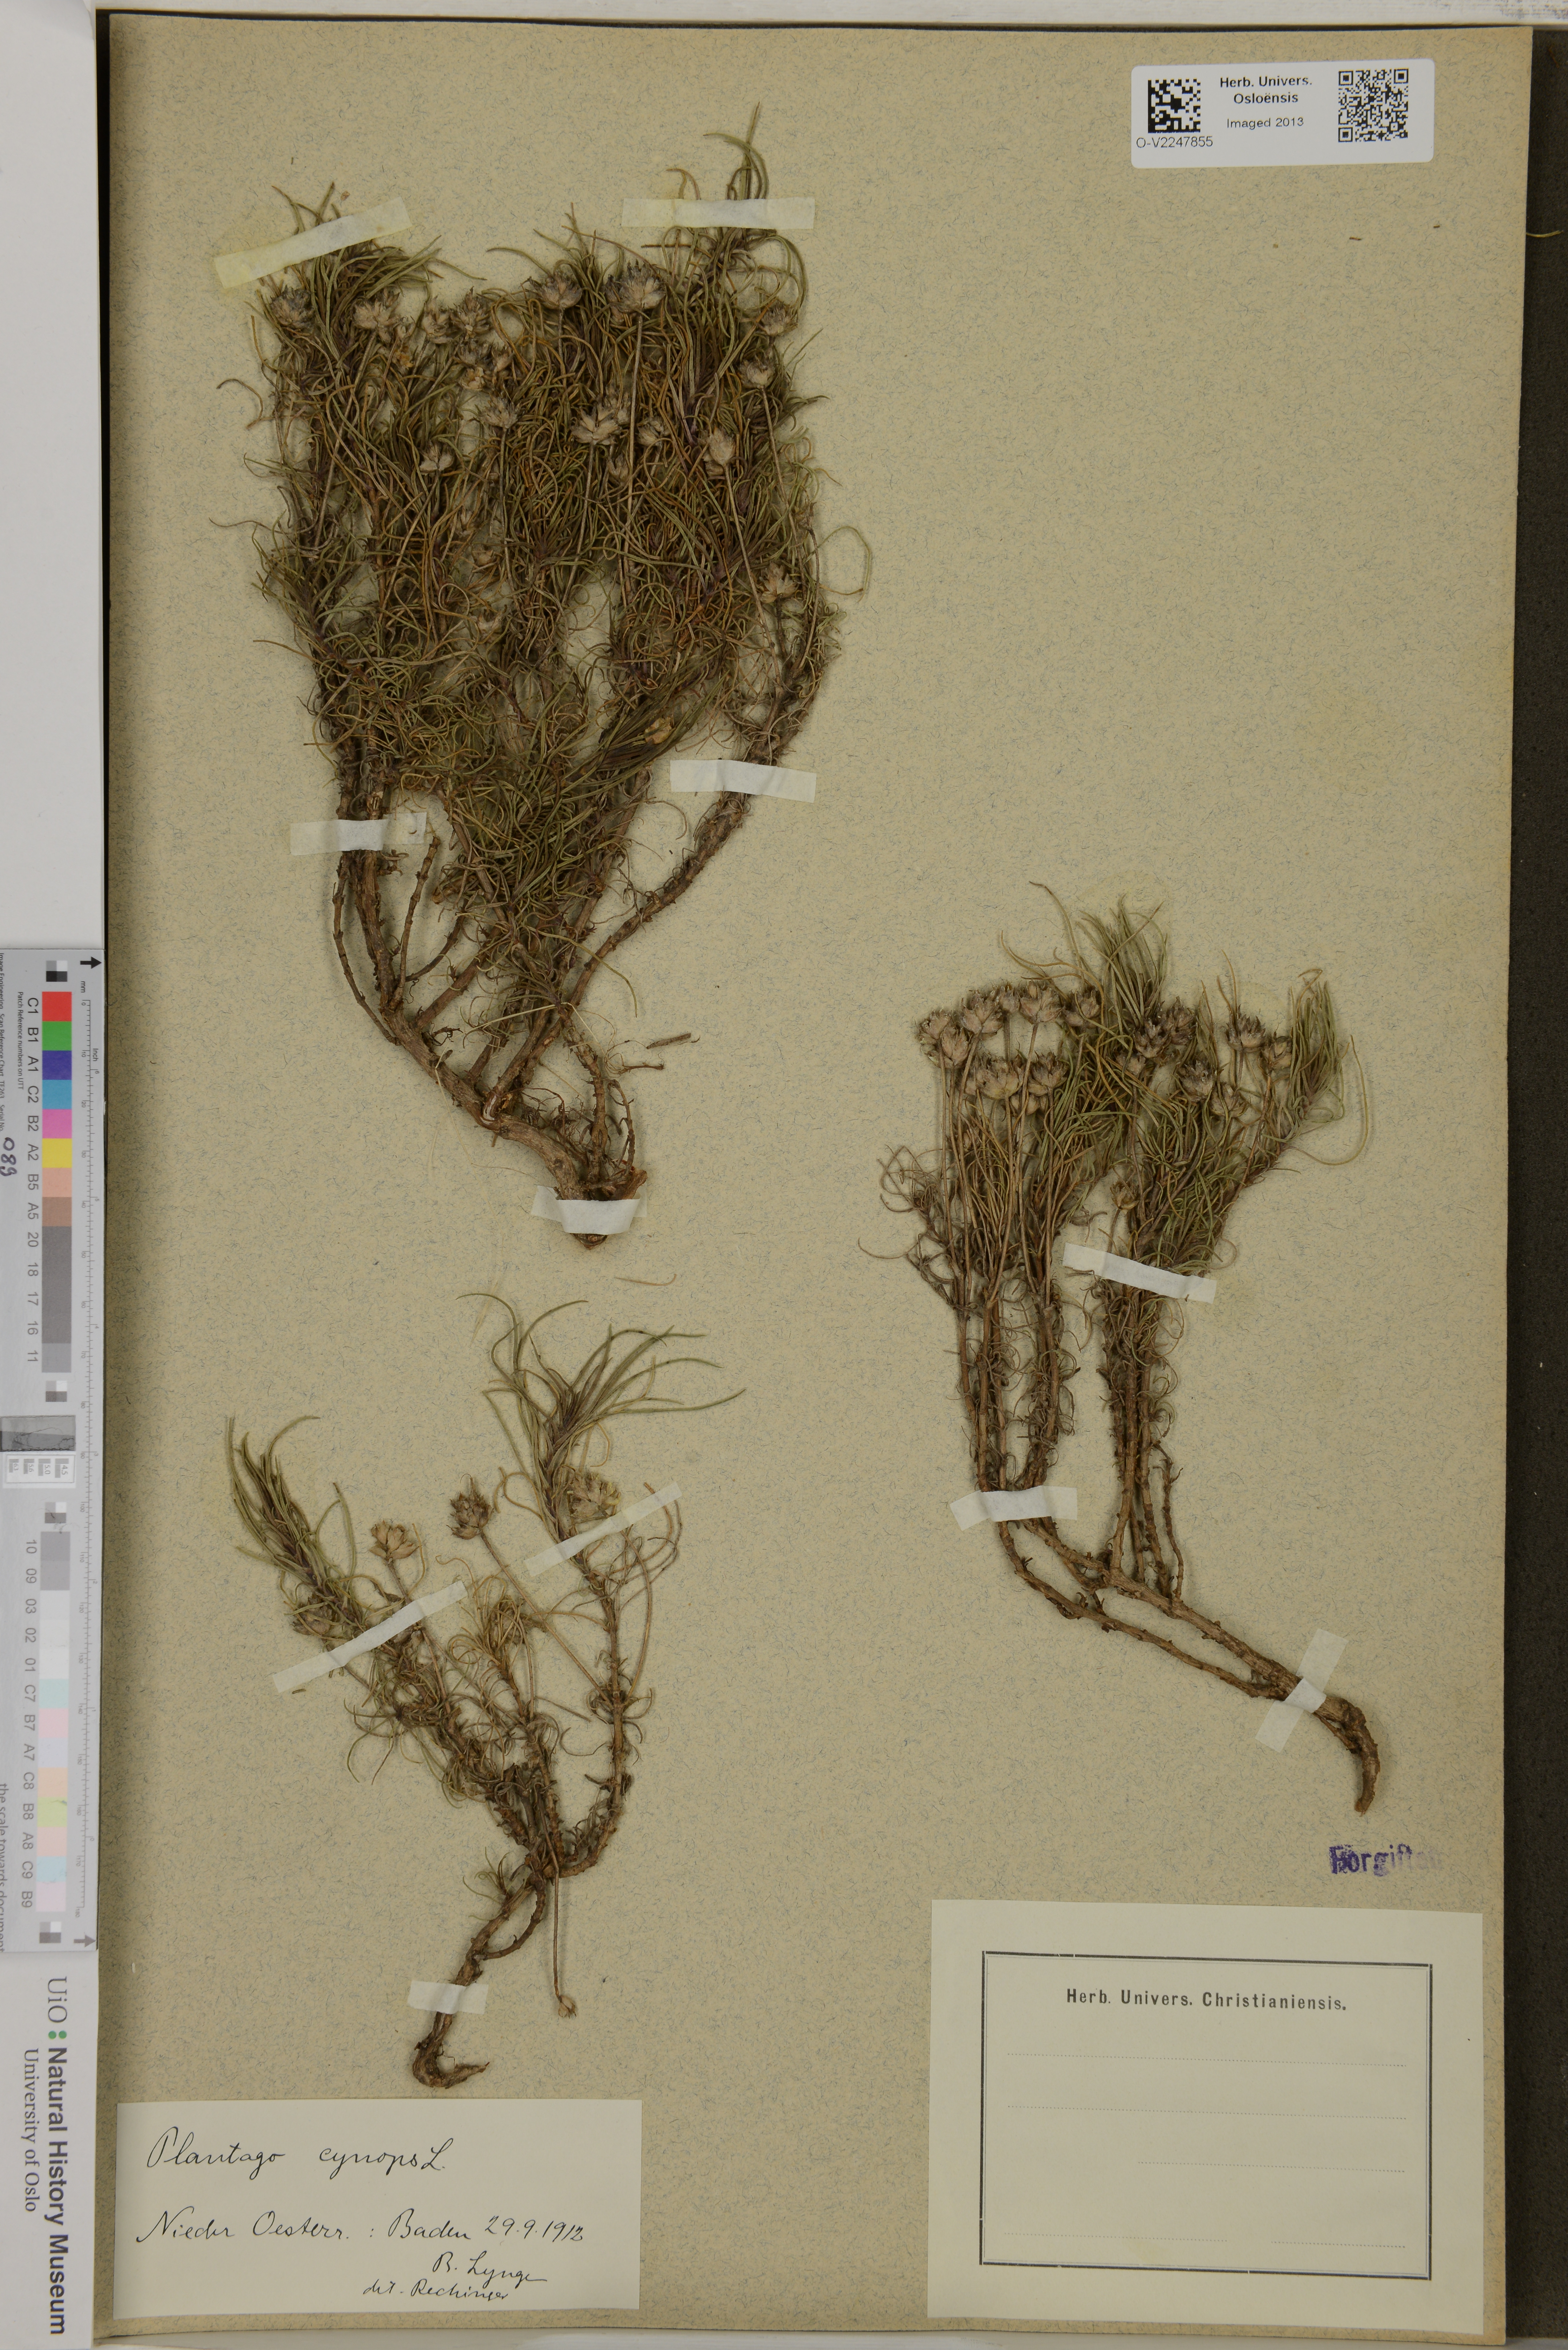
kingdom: Plantae
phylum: Tracheophyta
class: Magnoliopsida
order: Lamiales
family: Plantaginaceae
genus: Plantago
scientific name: Plantago
